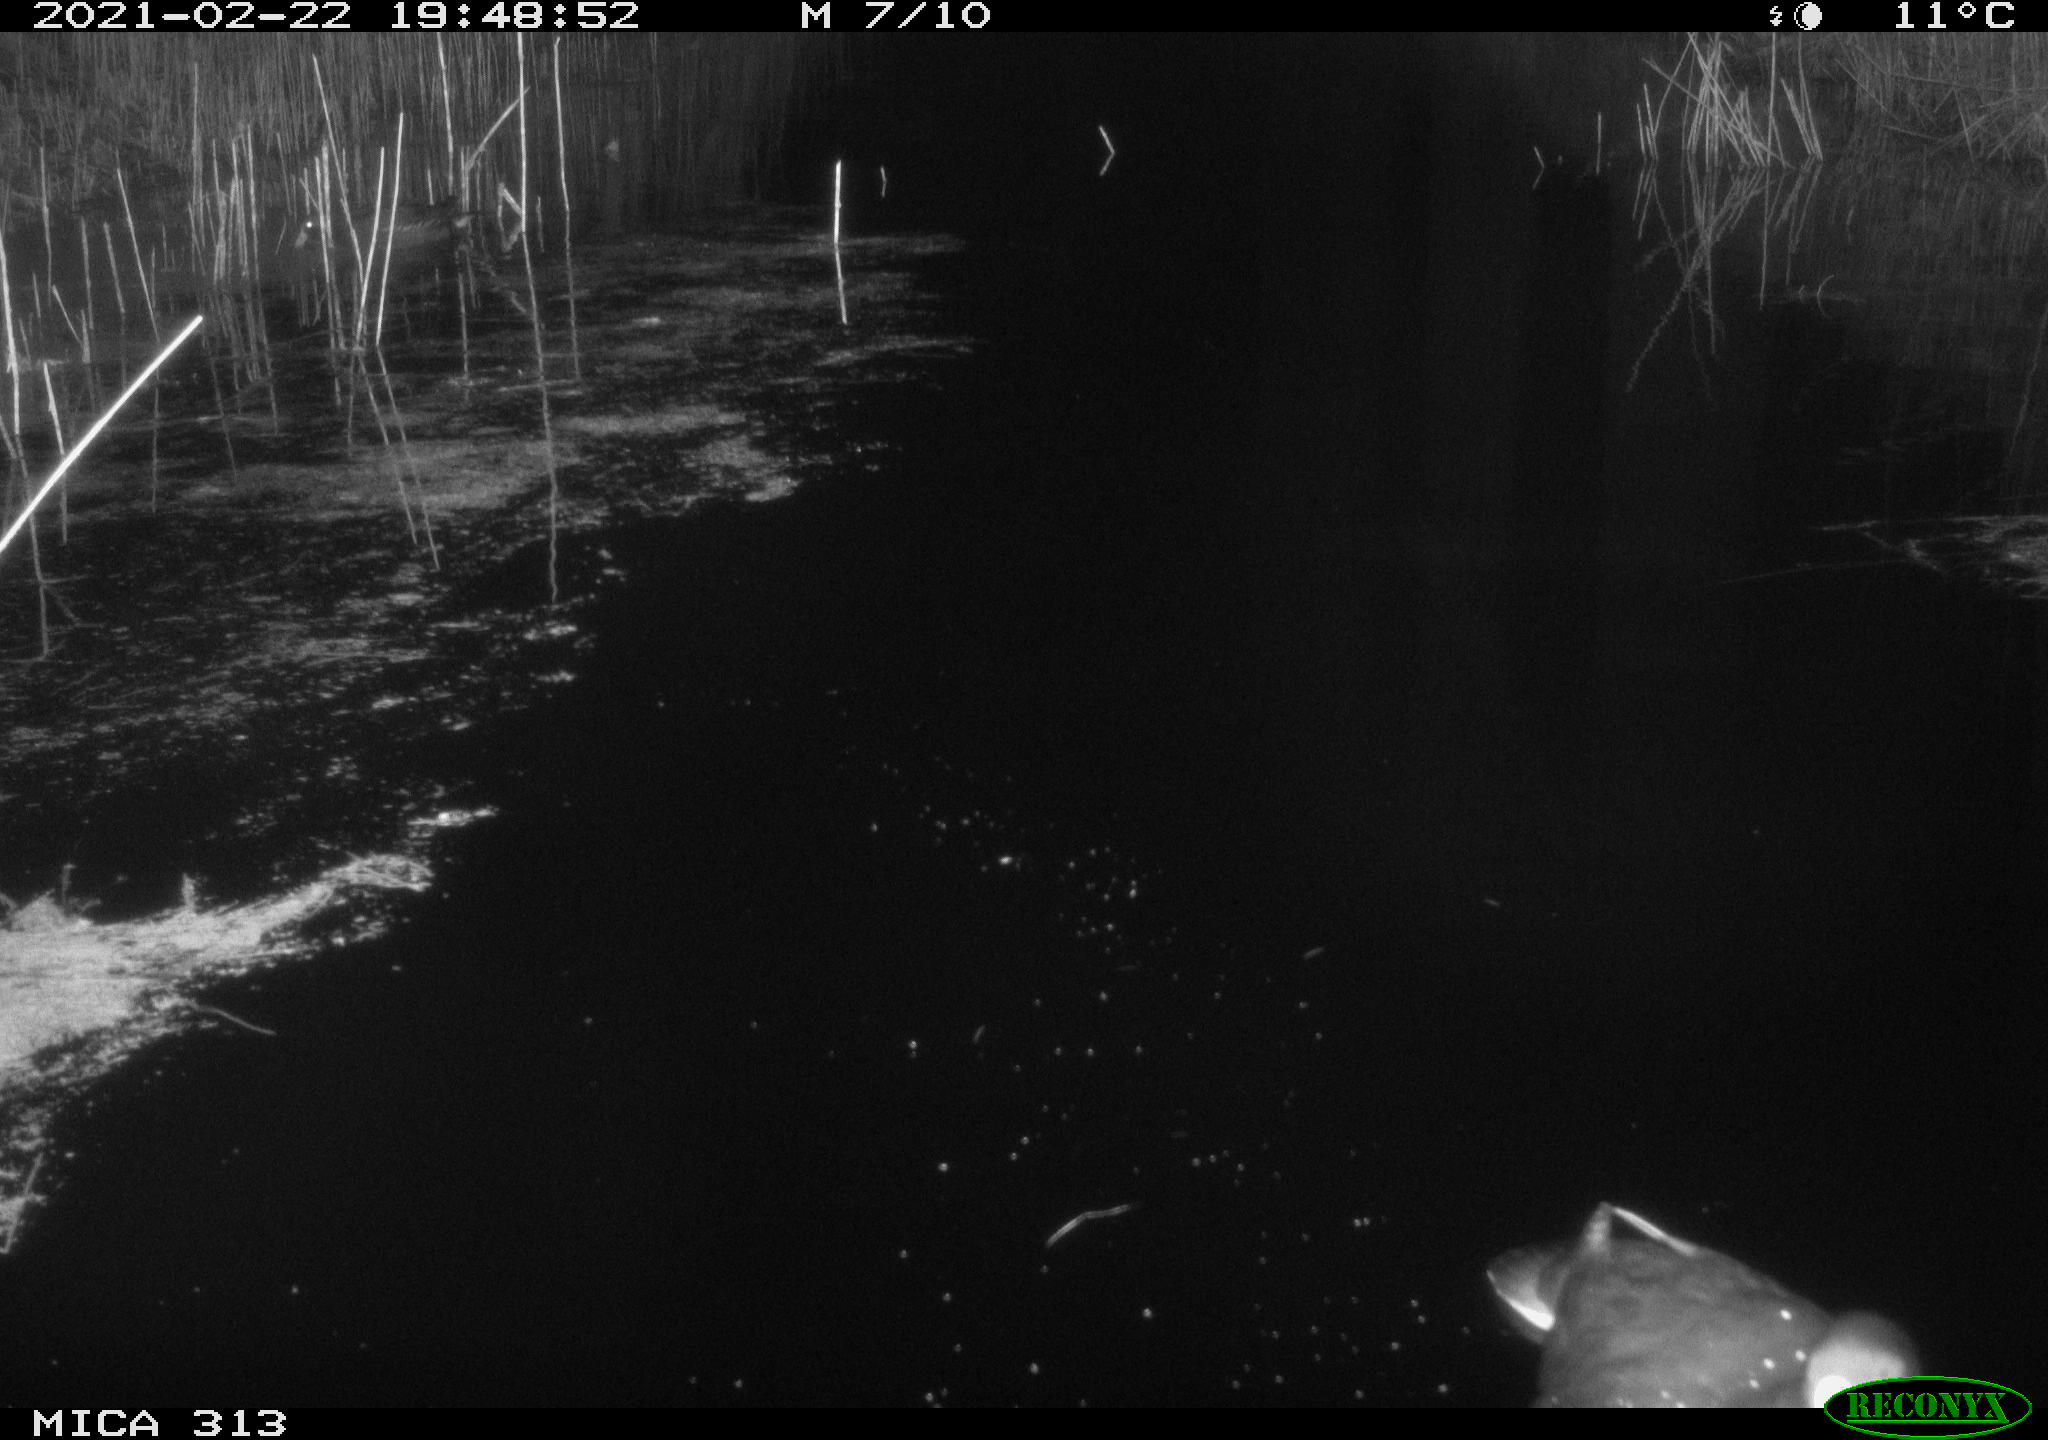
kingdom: Animalia
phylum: Chordata
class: Aves
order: Gruiformes
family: Rallidae
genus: Fulica
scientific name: Fulica atra
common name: Eurasian coot
